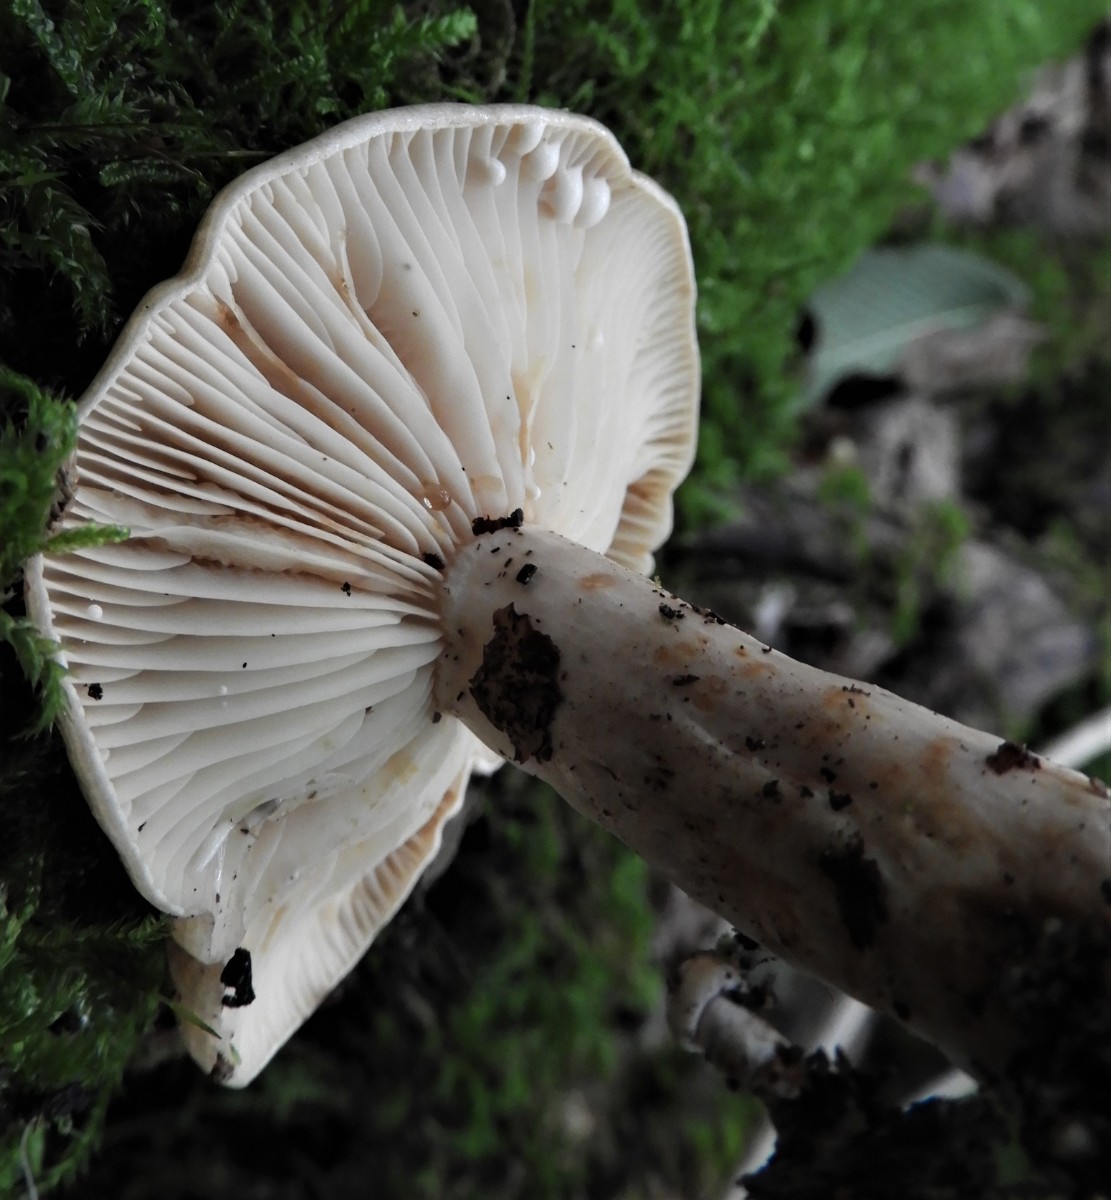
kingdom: Fungi
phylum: Basidiomycota
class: Agaricomycetes
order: Russulales
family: Russulaceae
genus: Lactarius
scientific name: Lactarius blennius
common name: dråbeplettet mælkehat
